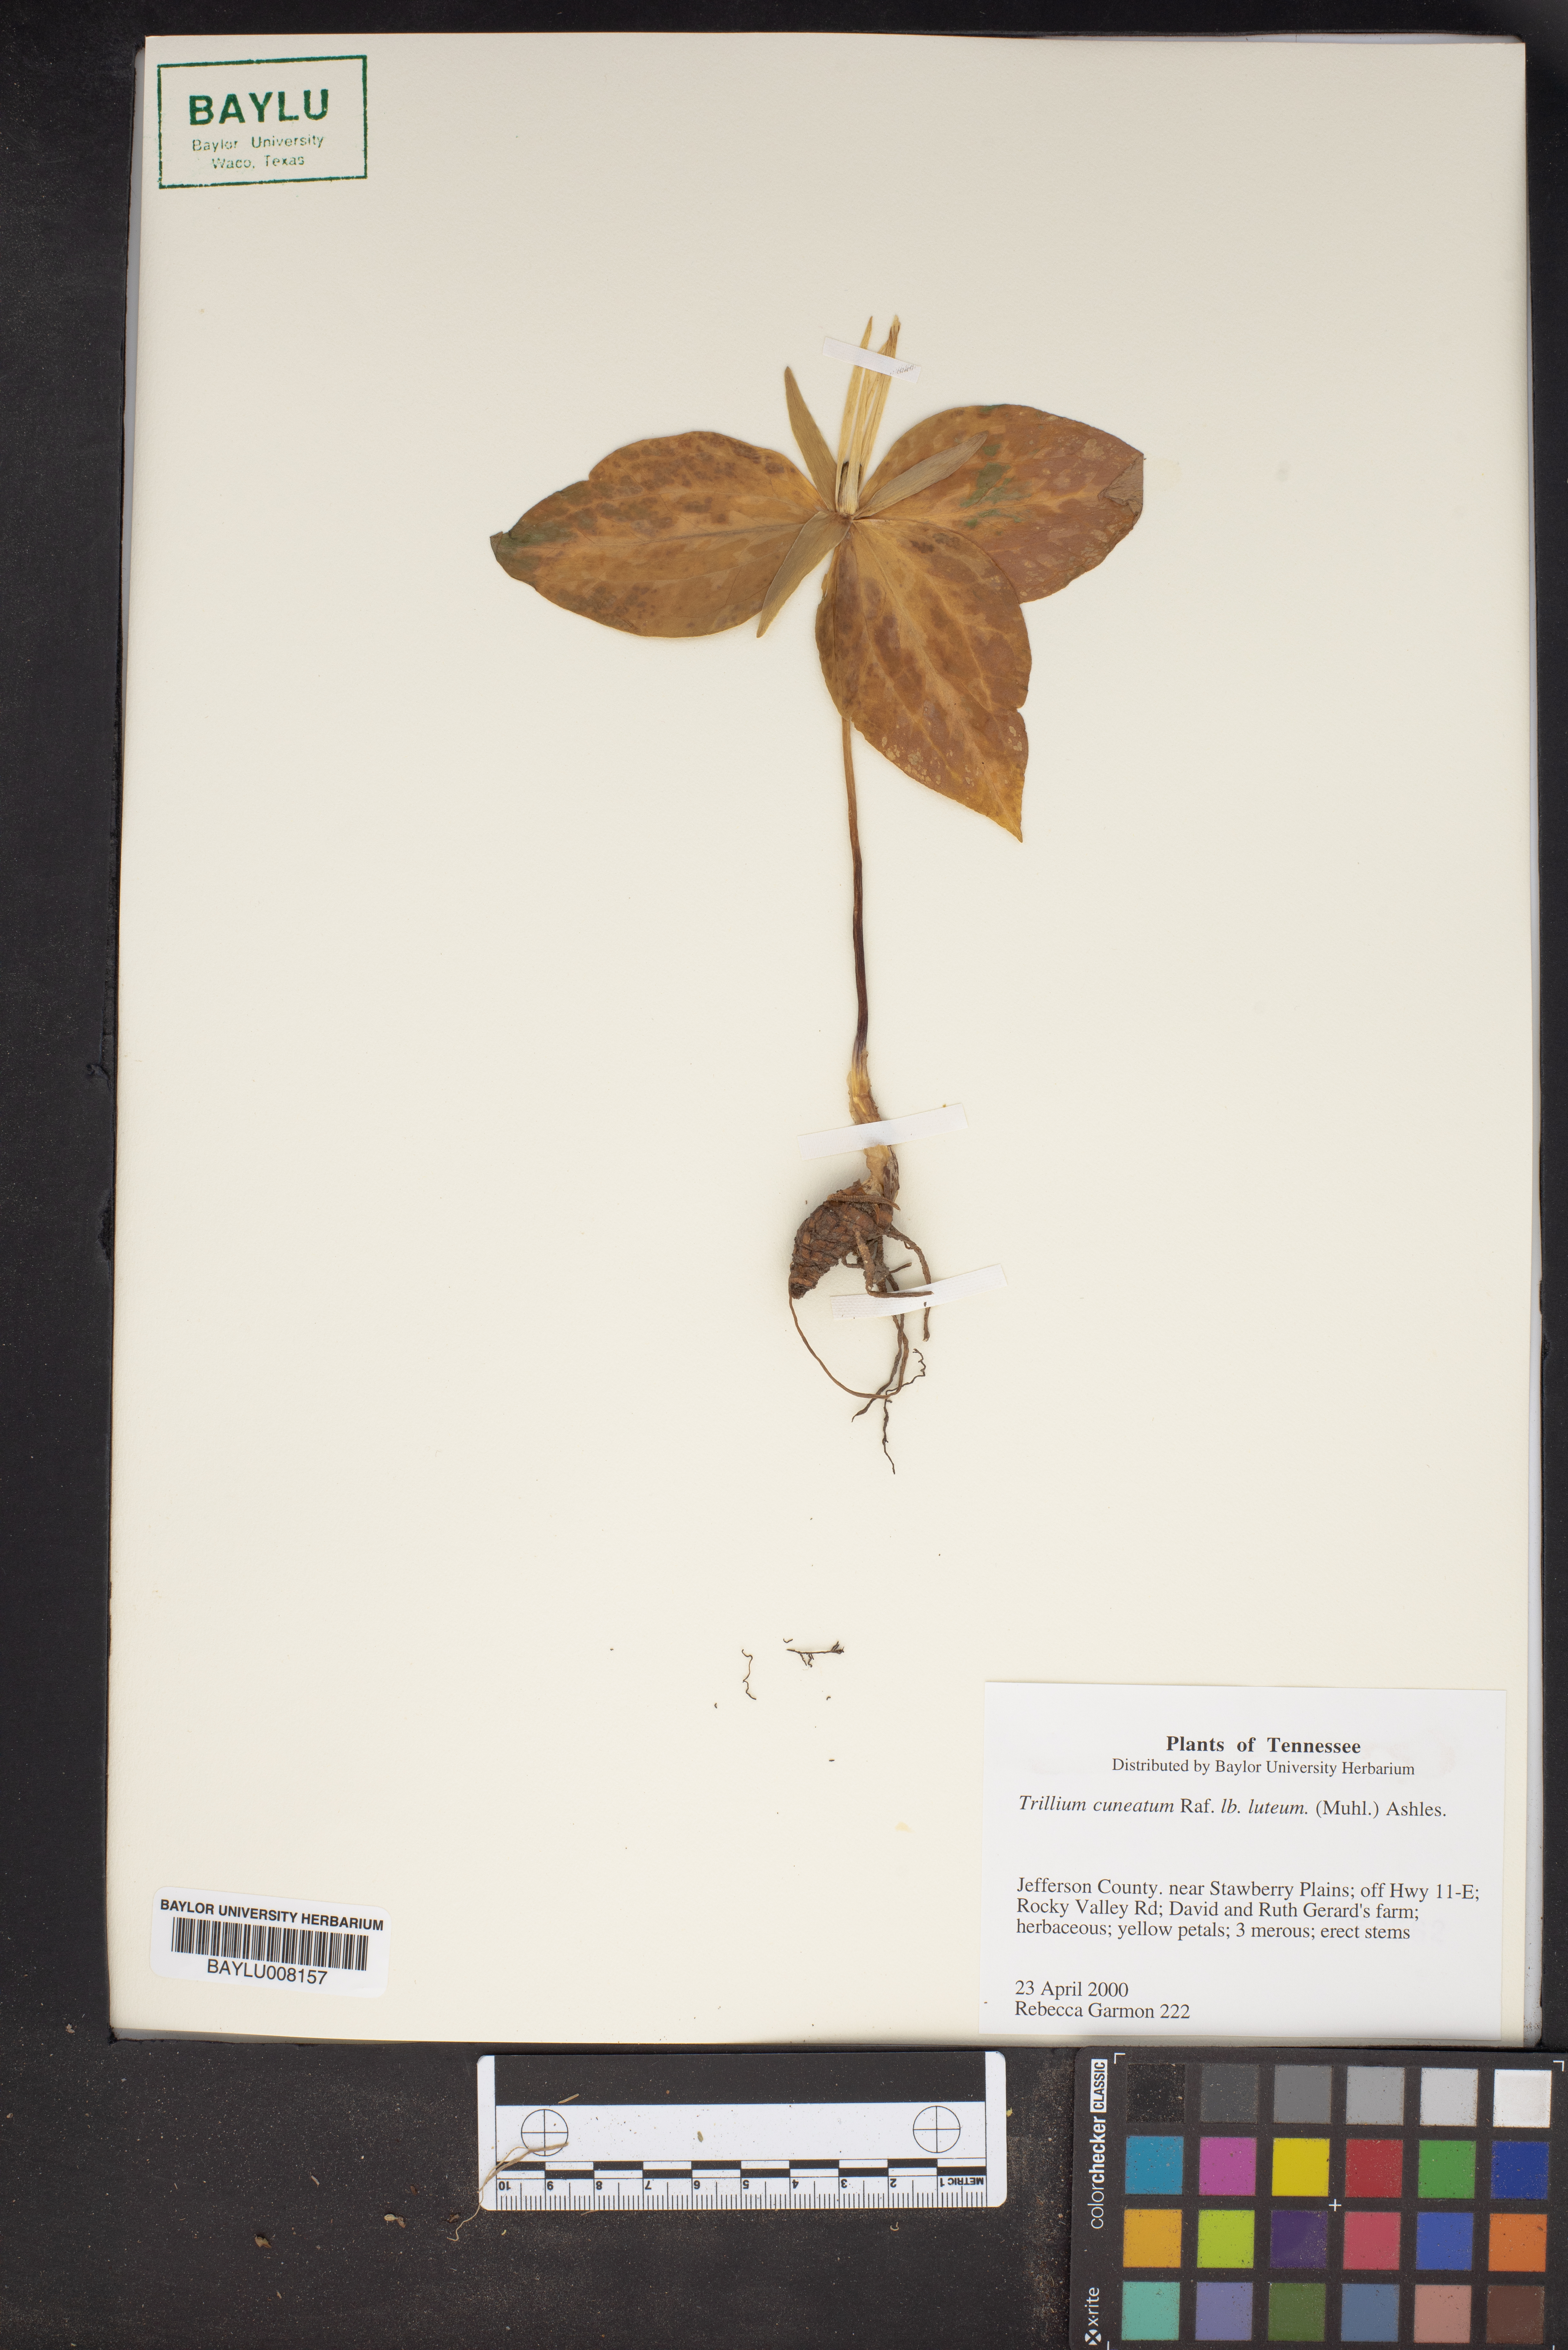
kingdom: Plantae
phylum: Tracheophyta
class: Liliopsida
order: Liliales
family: Melanthiaceae
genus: Trillium
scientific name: Trillium cuneatum
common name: Cuneate trillium
